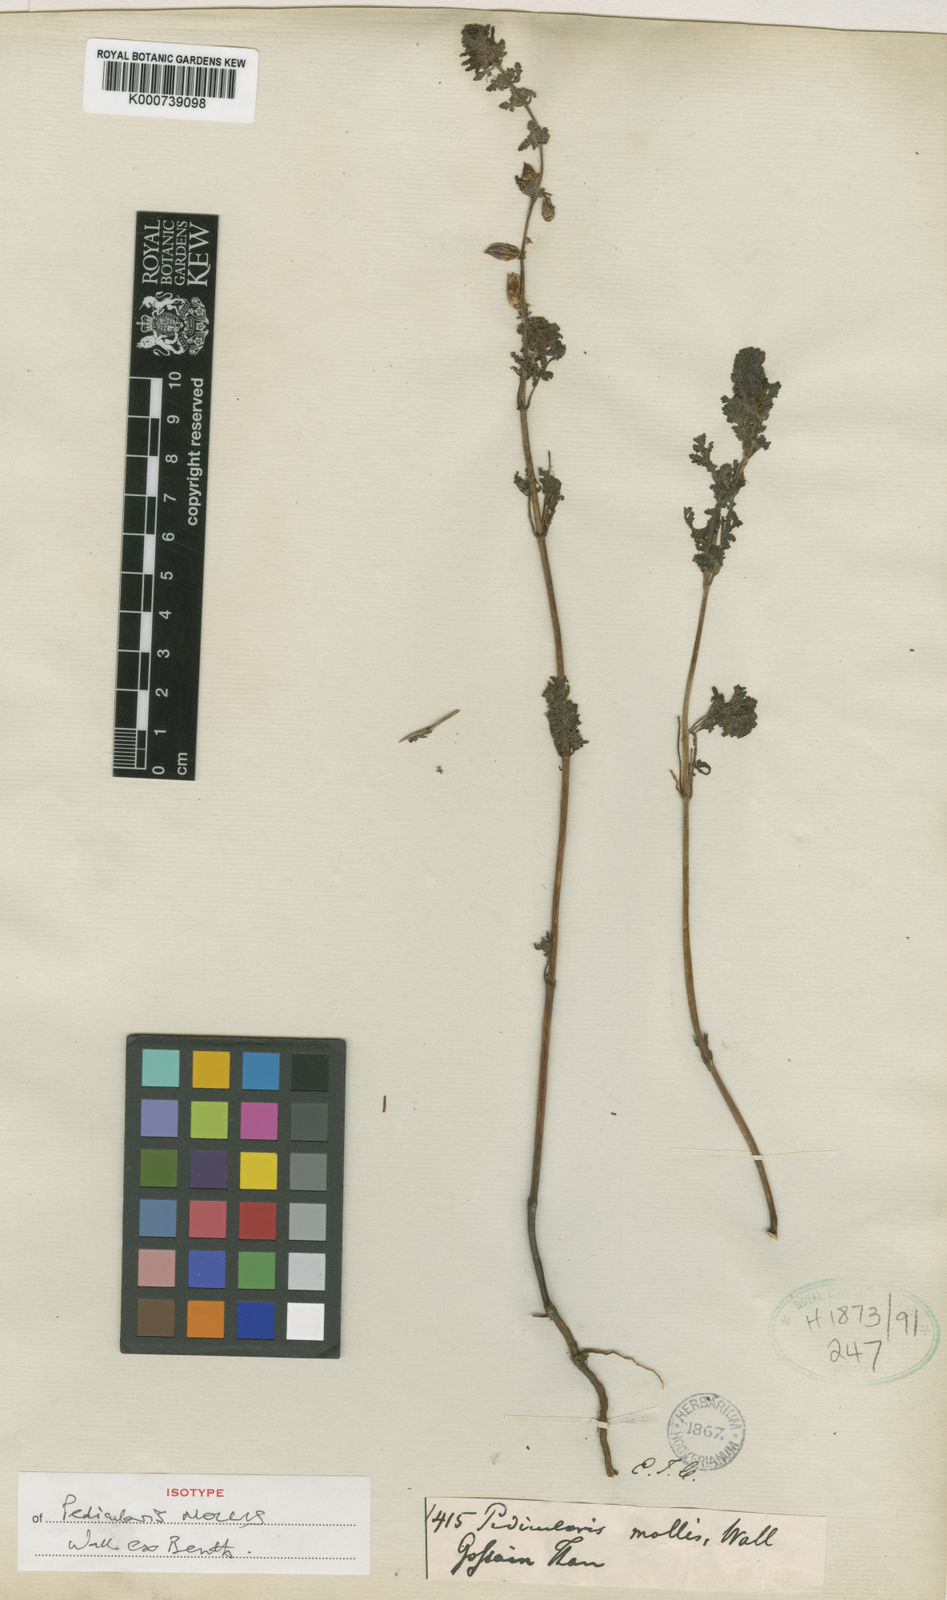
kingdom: Plantae
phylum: Tracheophyta
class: Magnoliopsida
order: Lamiales
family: Orobanchaceae
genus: Pedicularis
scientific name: Pedicularis
